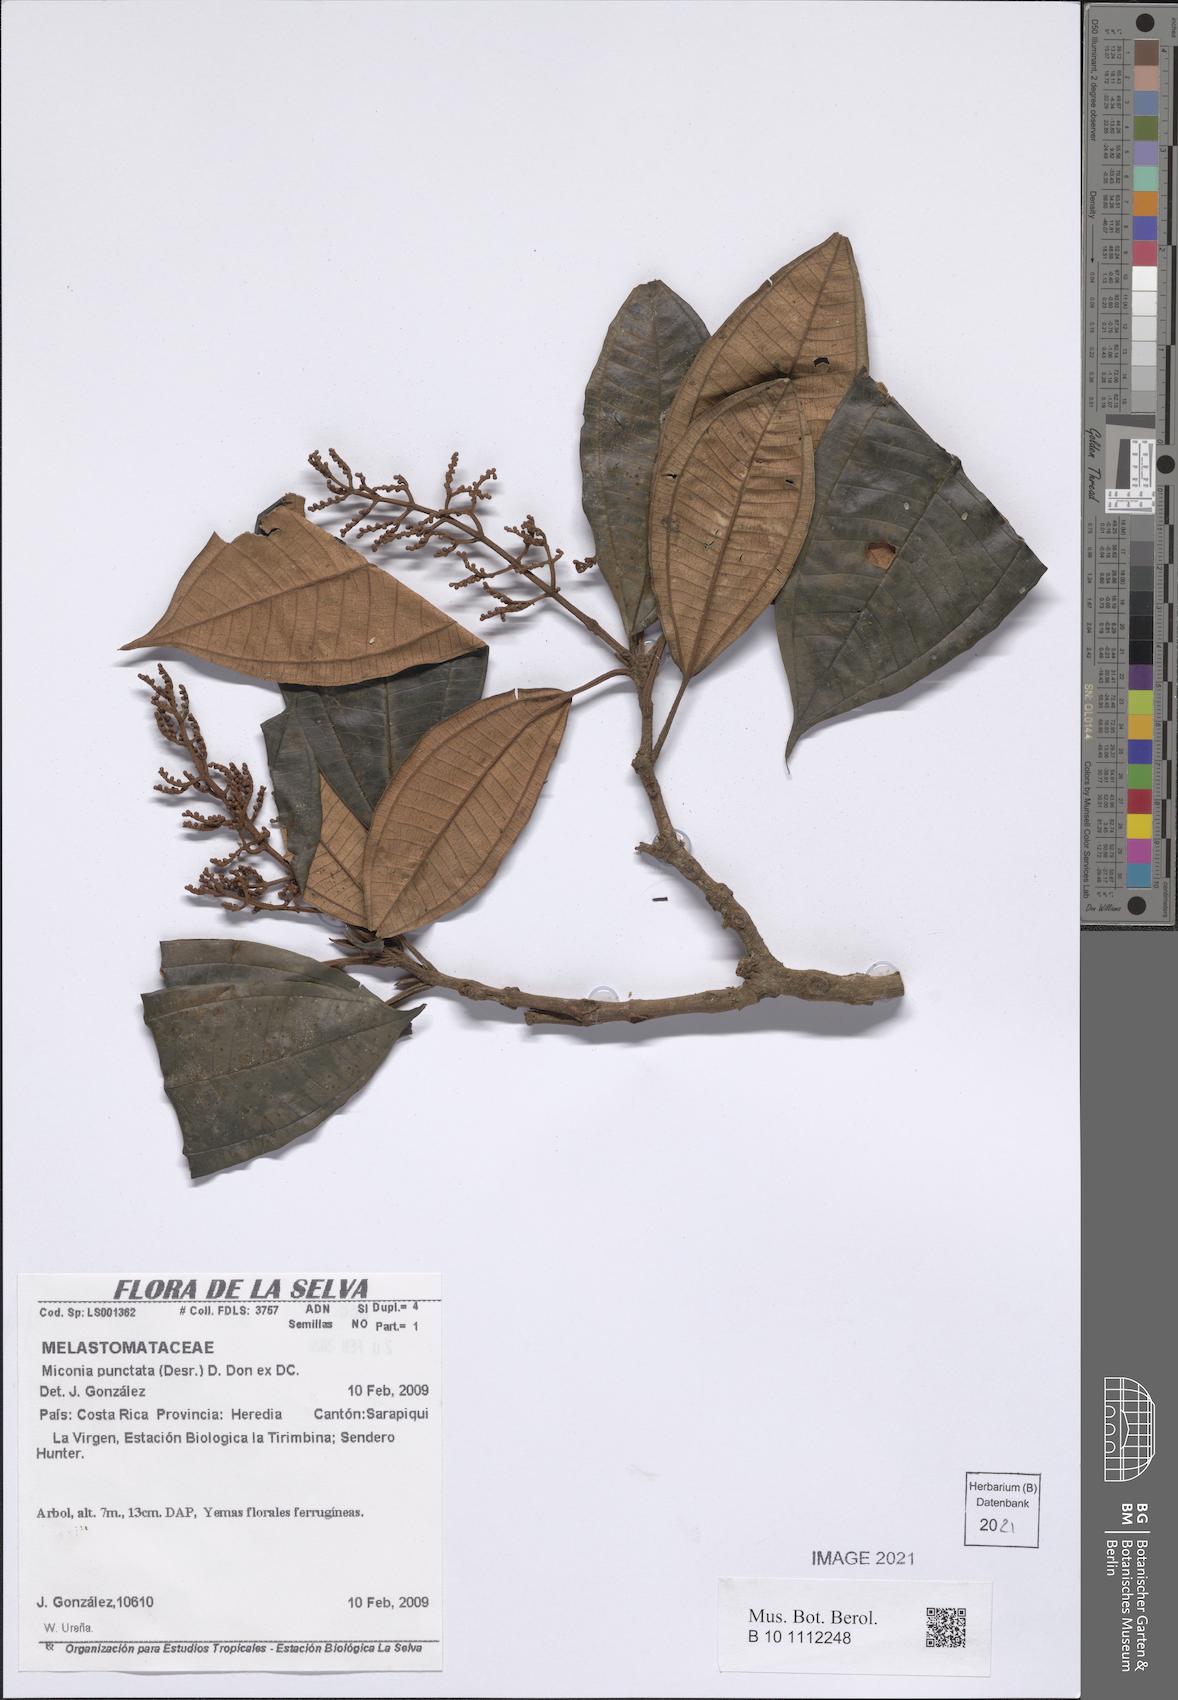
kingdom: Plantae
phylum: Tracheophyta
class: Magnoliopsida
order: Myrtales
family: Melastomataceae
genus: Miconia
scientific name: Miconia punctata
